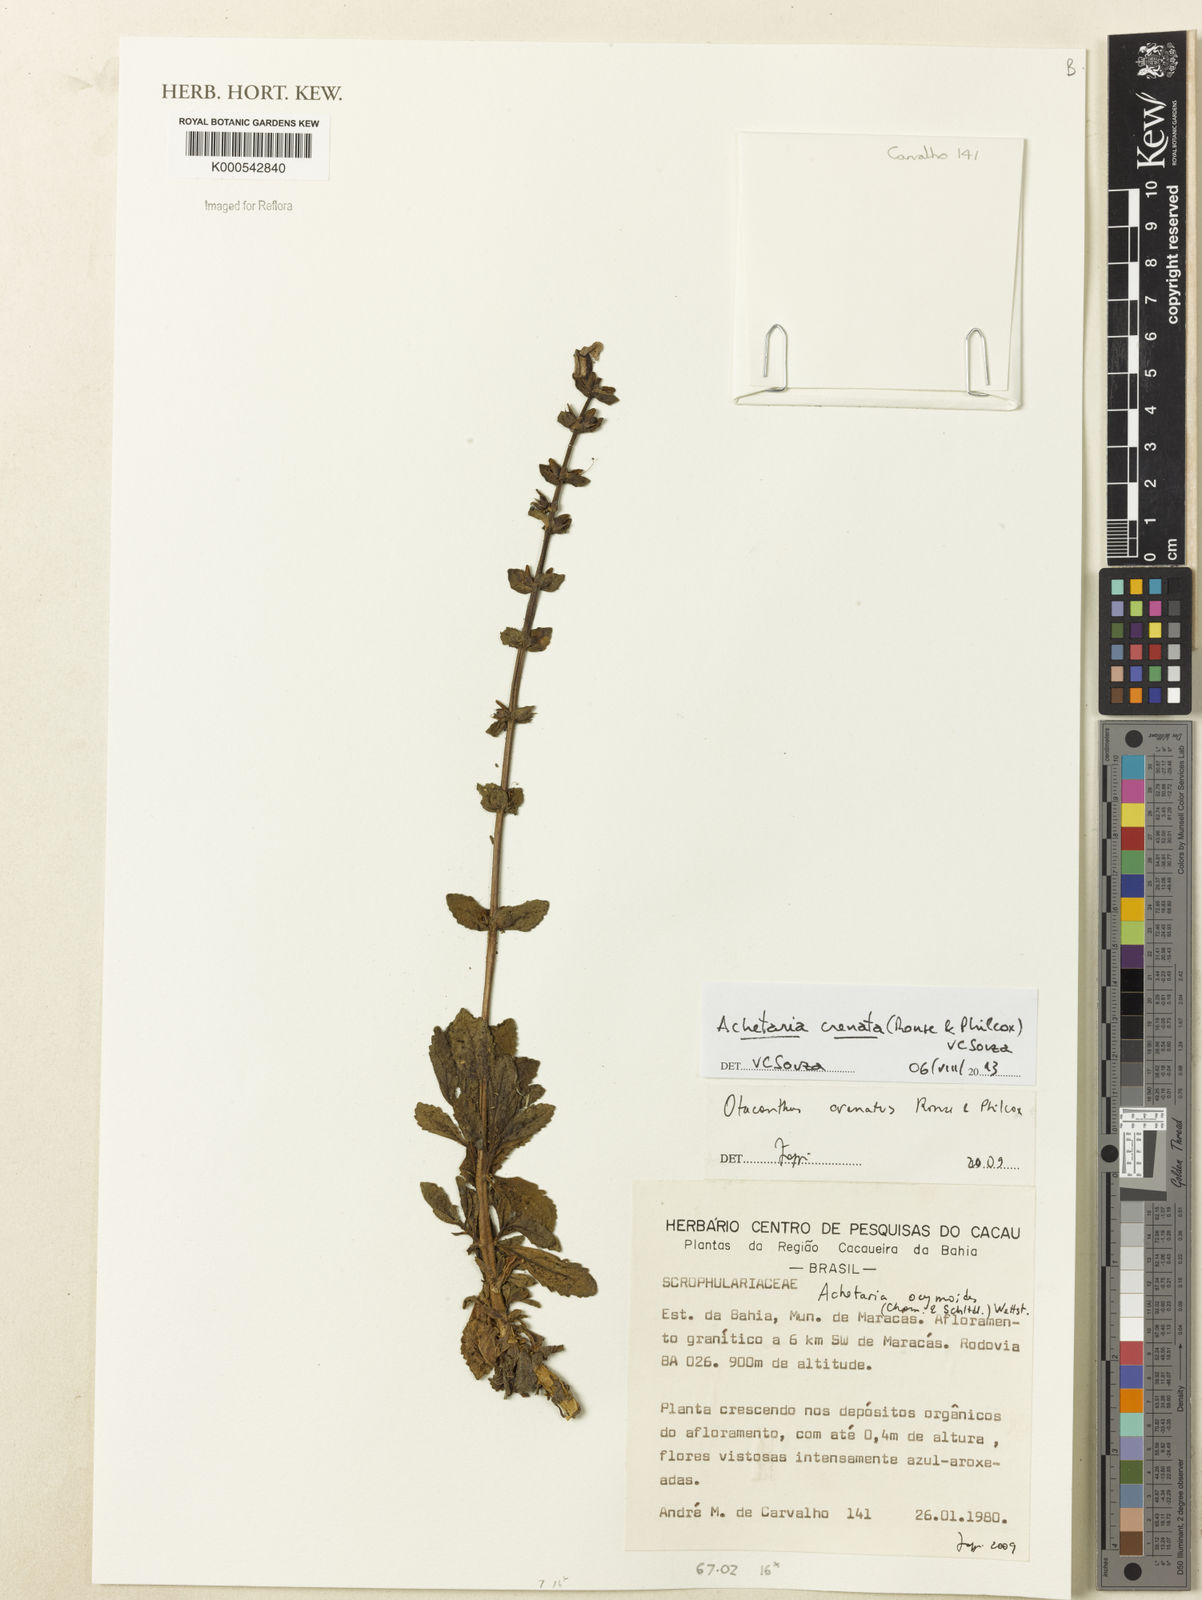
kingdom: Plantae
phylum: Tracheophyta
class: Magnoliopsida
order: Lamiales
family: Plantaginaceae
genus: Matourea
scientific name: Matourea crenata
